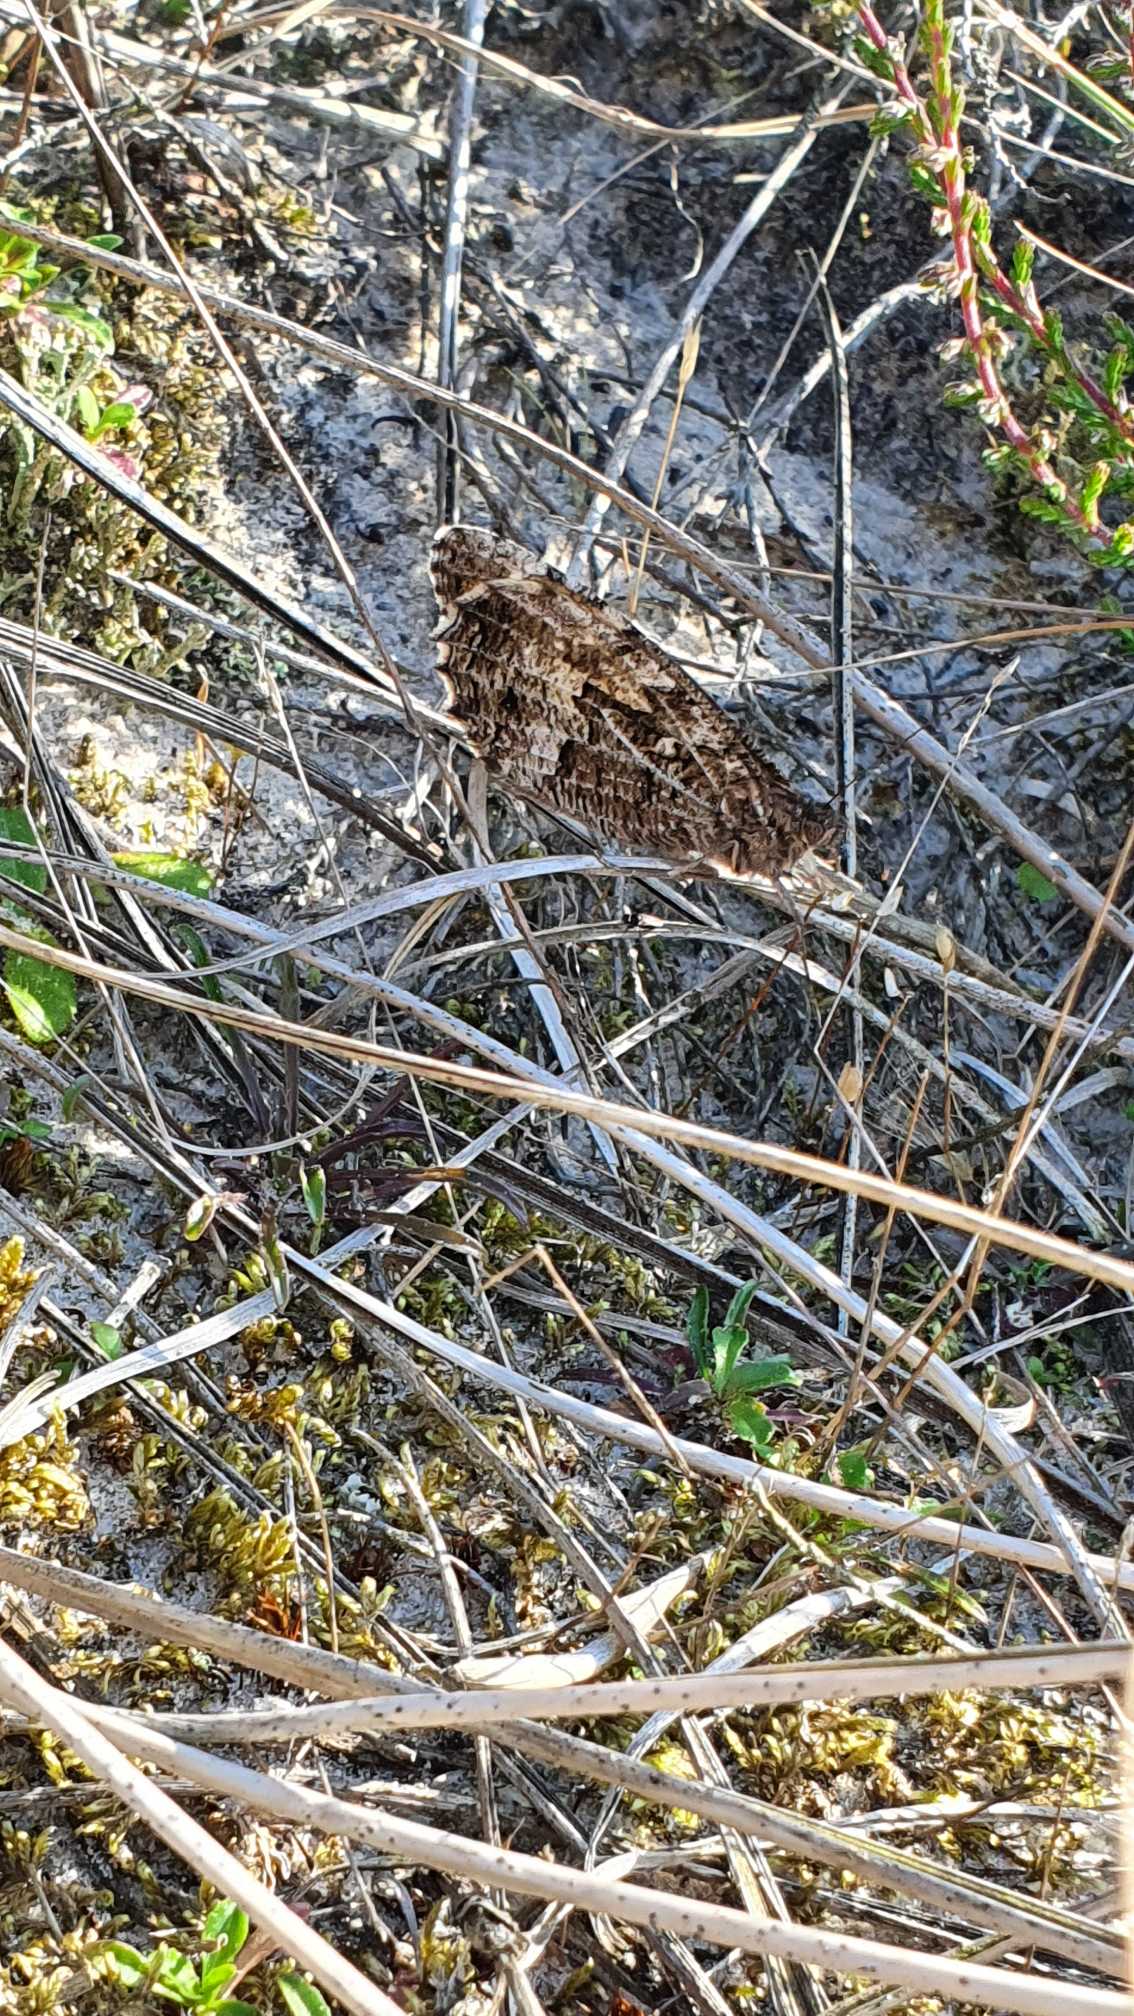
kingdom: Animalia
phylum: Arthropoda
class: Insecta
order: Lepidoptera
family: Nymphalidae
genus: Hipparchia
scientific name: Hipparchia semele
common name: Sandrandøje
